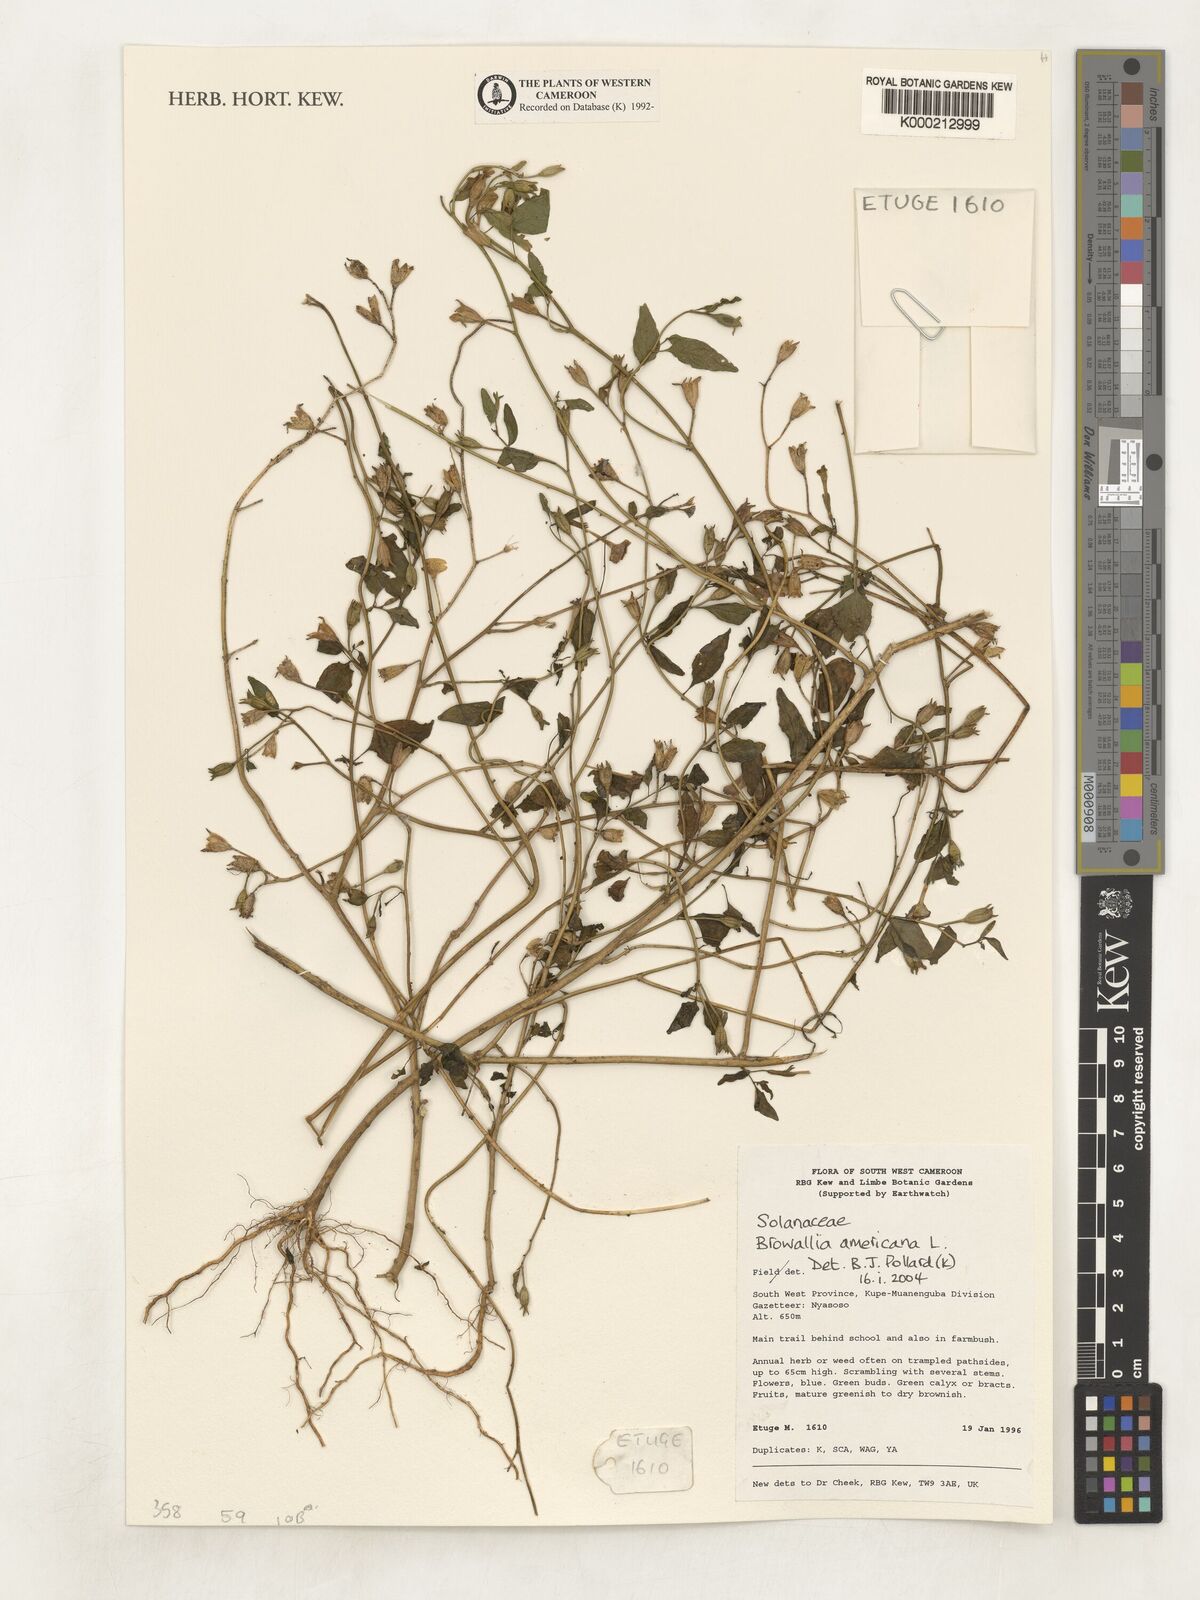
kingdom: Plantae
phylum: Tracheophyta
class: Magnoliopsida
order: Solanales
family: Solanaceae
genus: Browallia
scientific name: Browallia americana
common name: Jamaican forget-me-not
